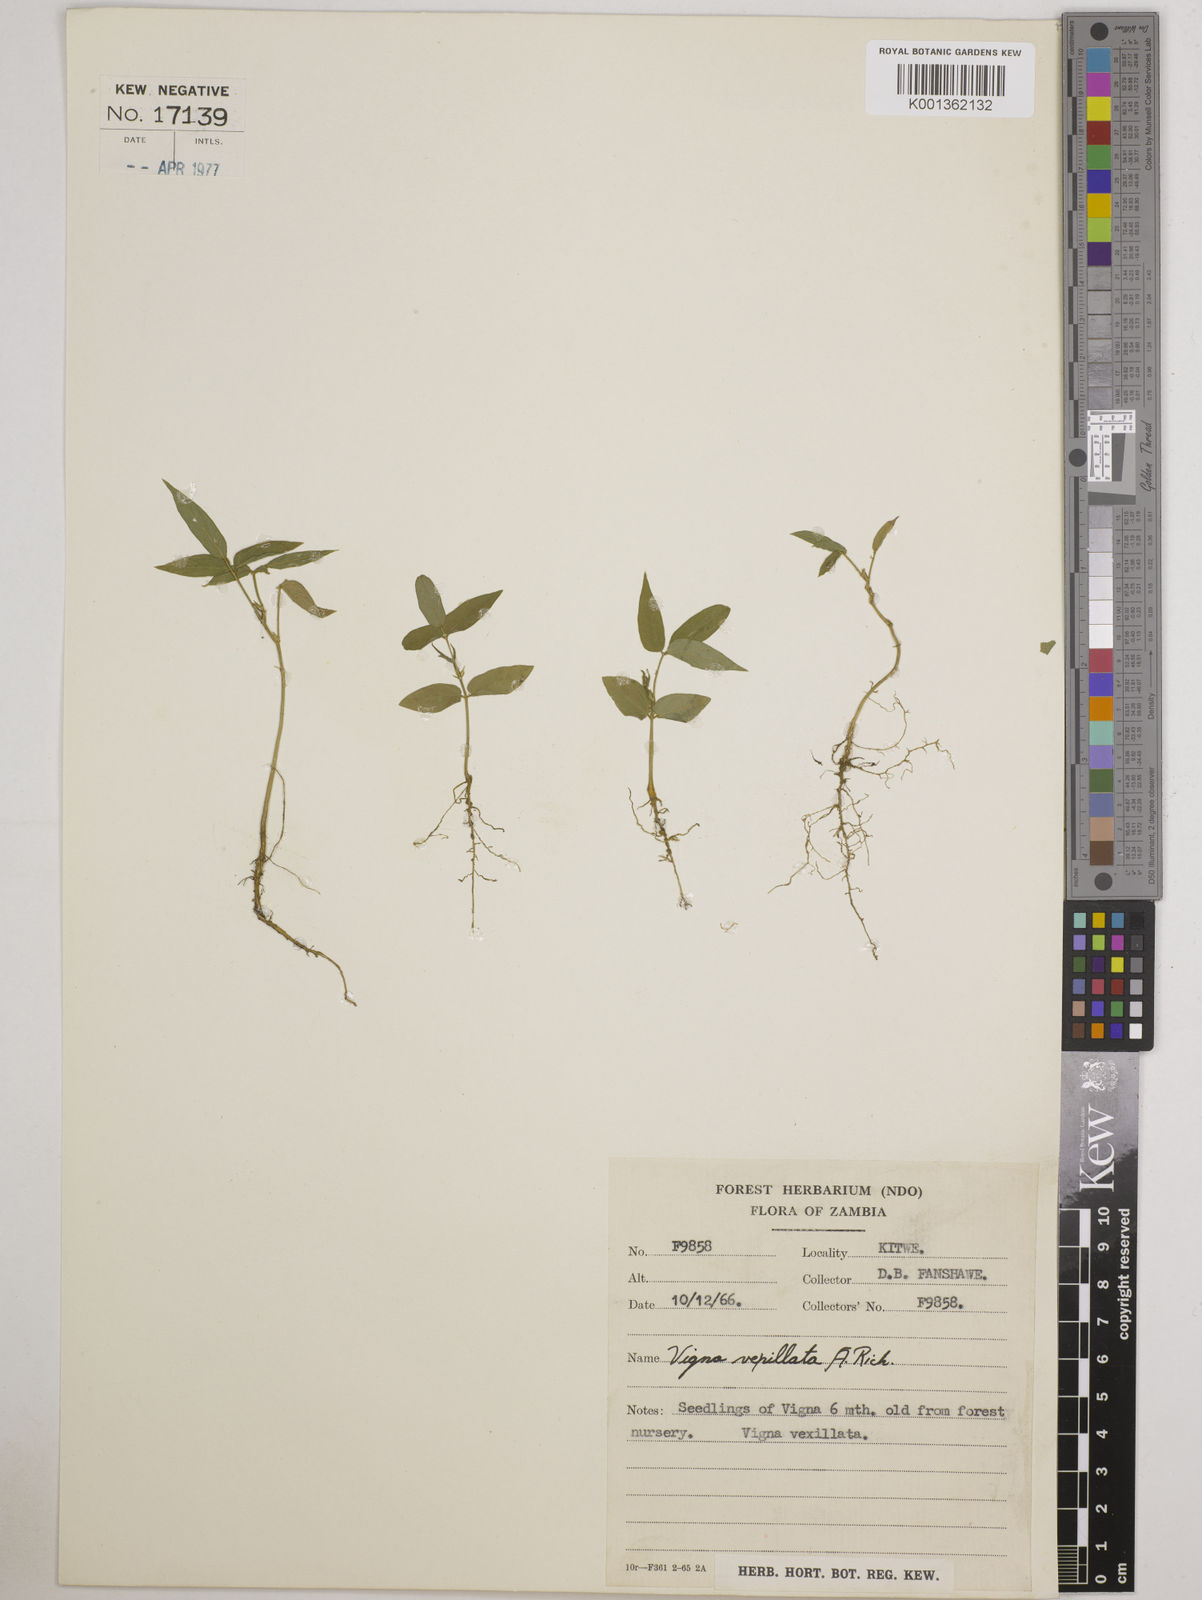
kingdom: Plantae
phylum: Tracheophyta
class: Magnoliopsida
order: Fabales
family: Fabaceae
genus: Vigna
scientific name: Vigna vexillata
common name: Zombi pea
